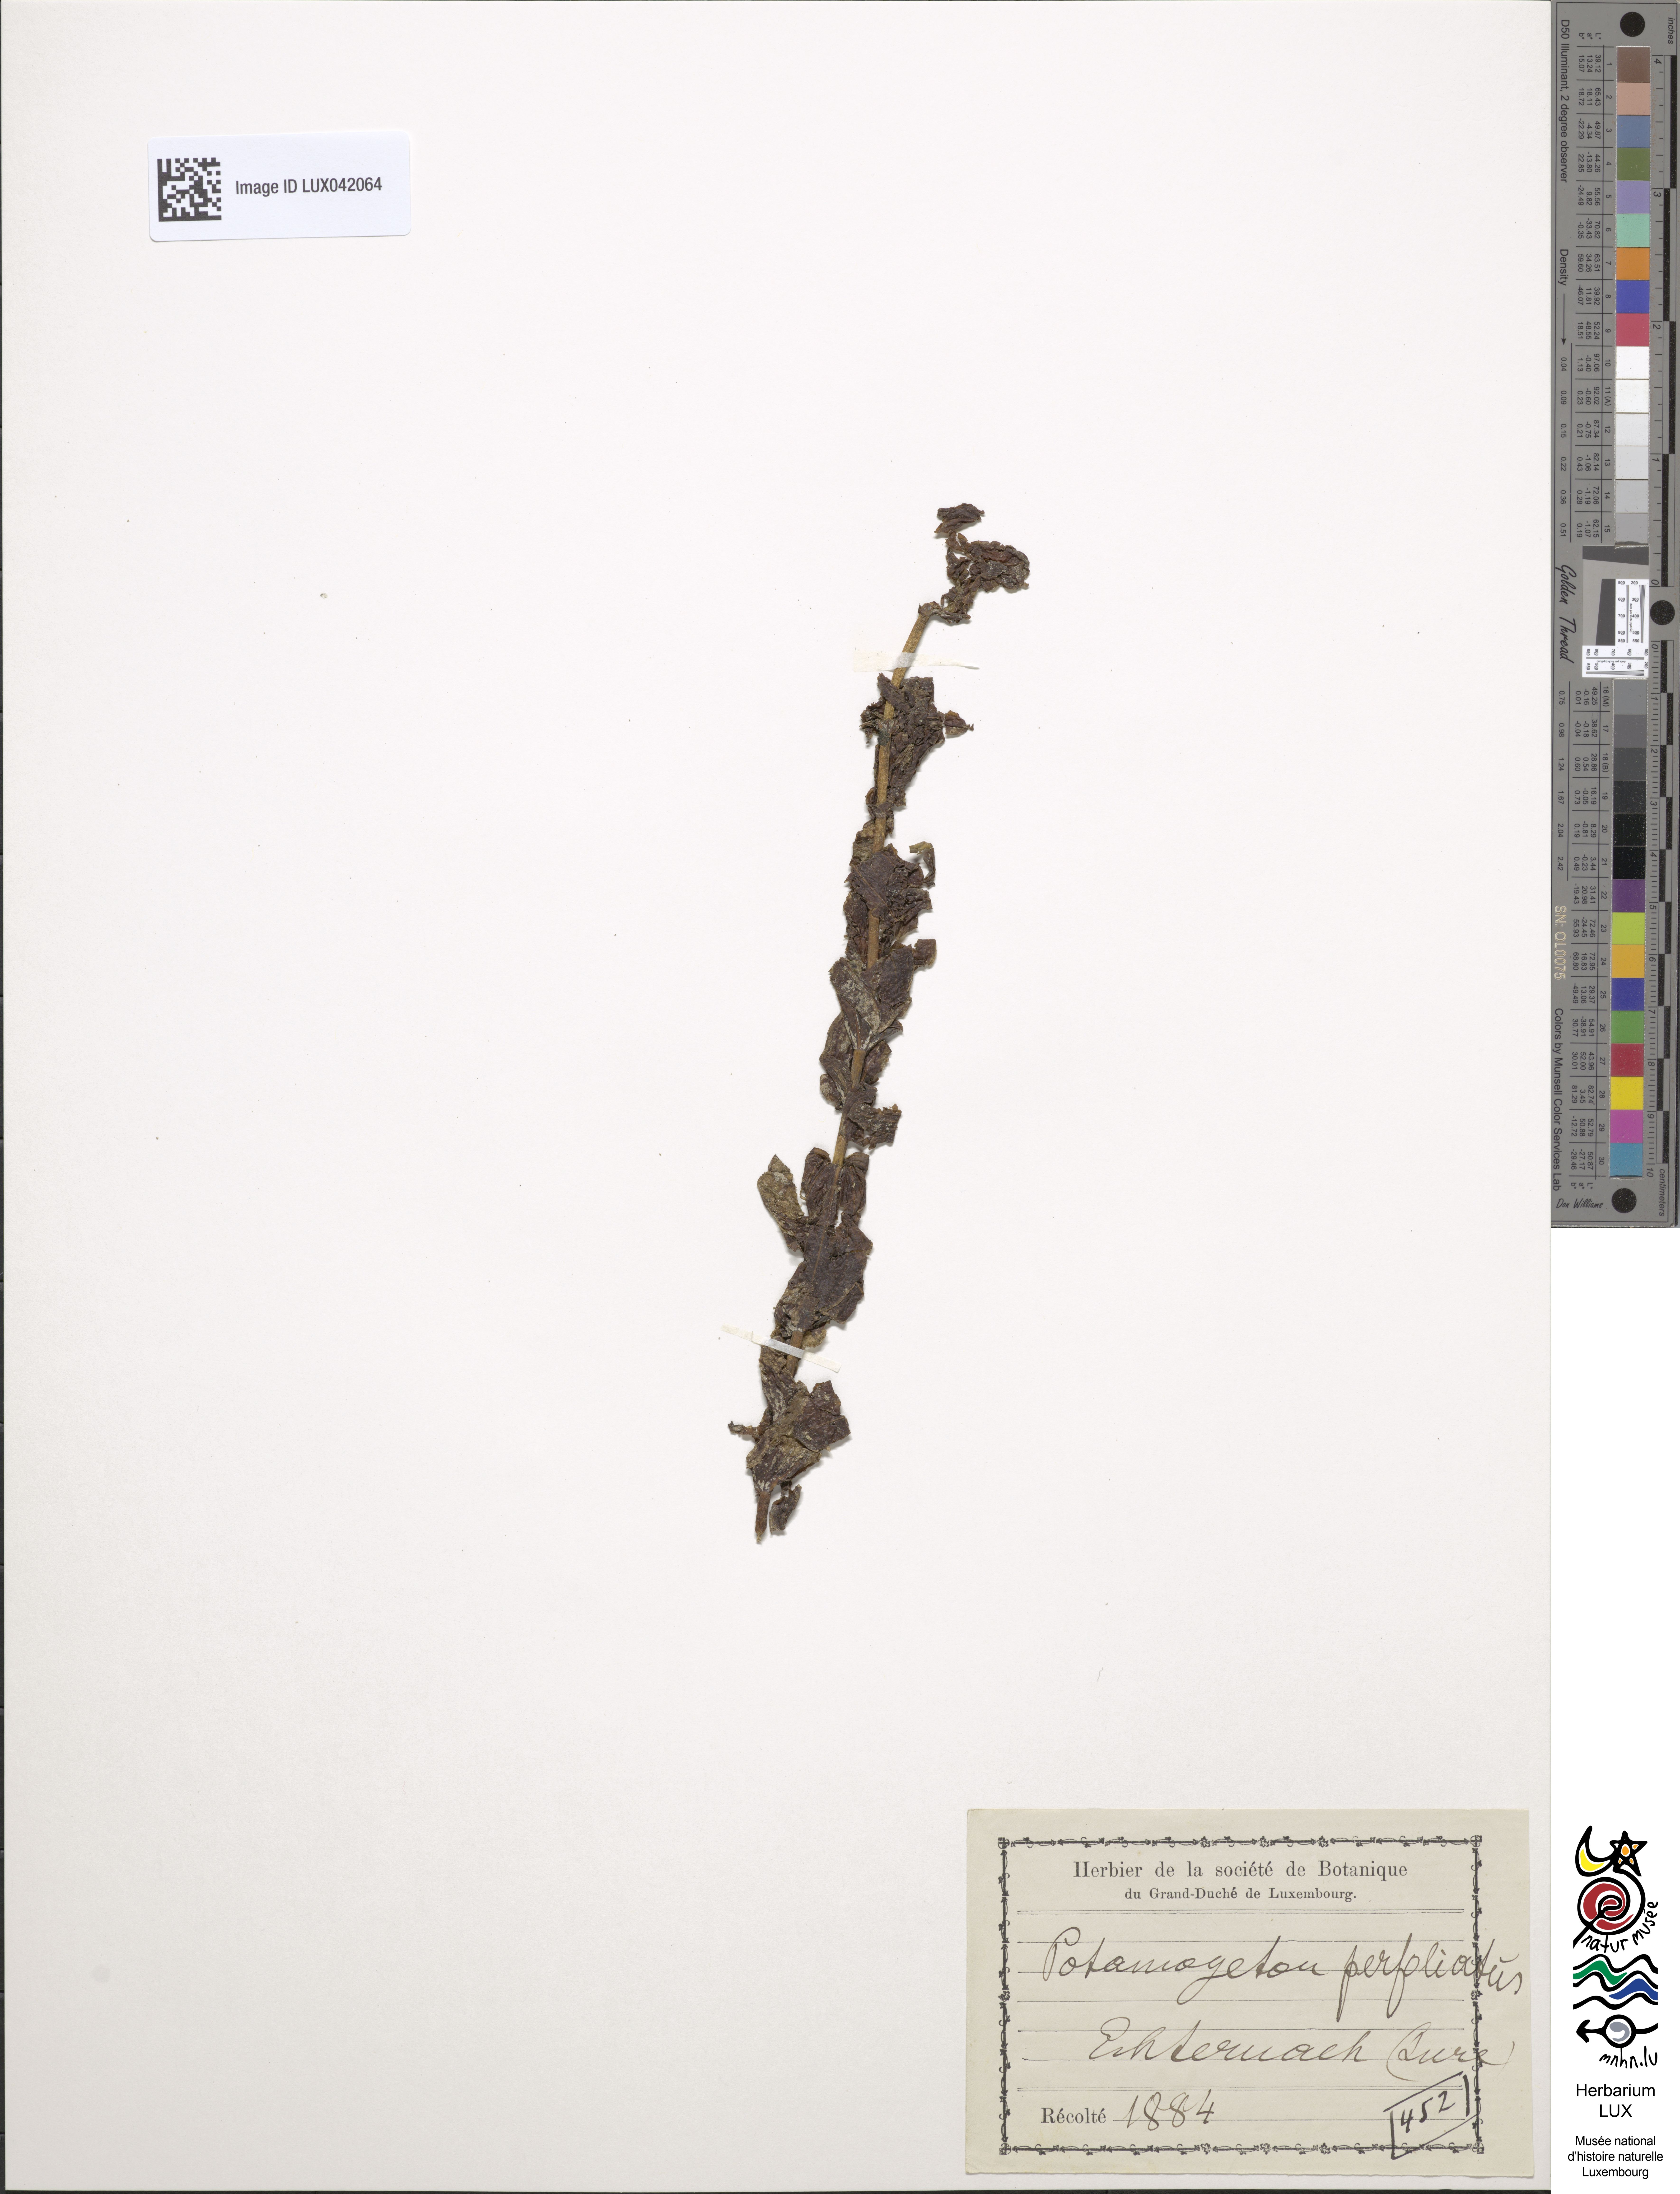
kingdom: Plantae
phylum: Tracheophyta
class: Liliopsida
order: Alismatales
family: Potamogetonaceae
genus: Potamogeton
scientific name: Potamogeton perfoliatus
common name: Perfoliate pondweed
